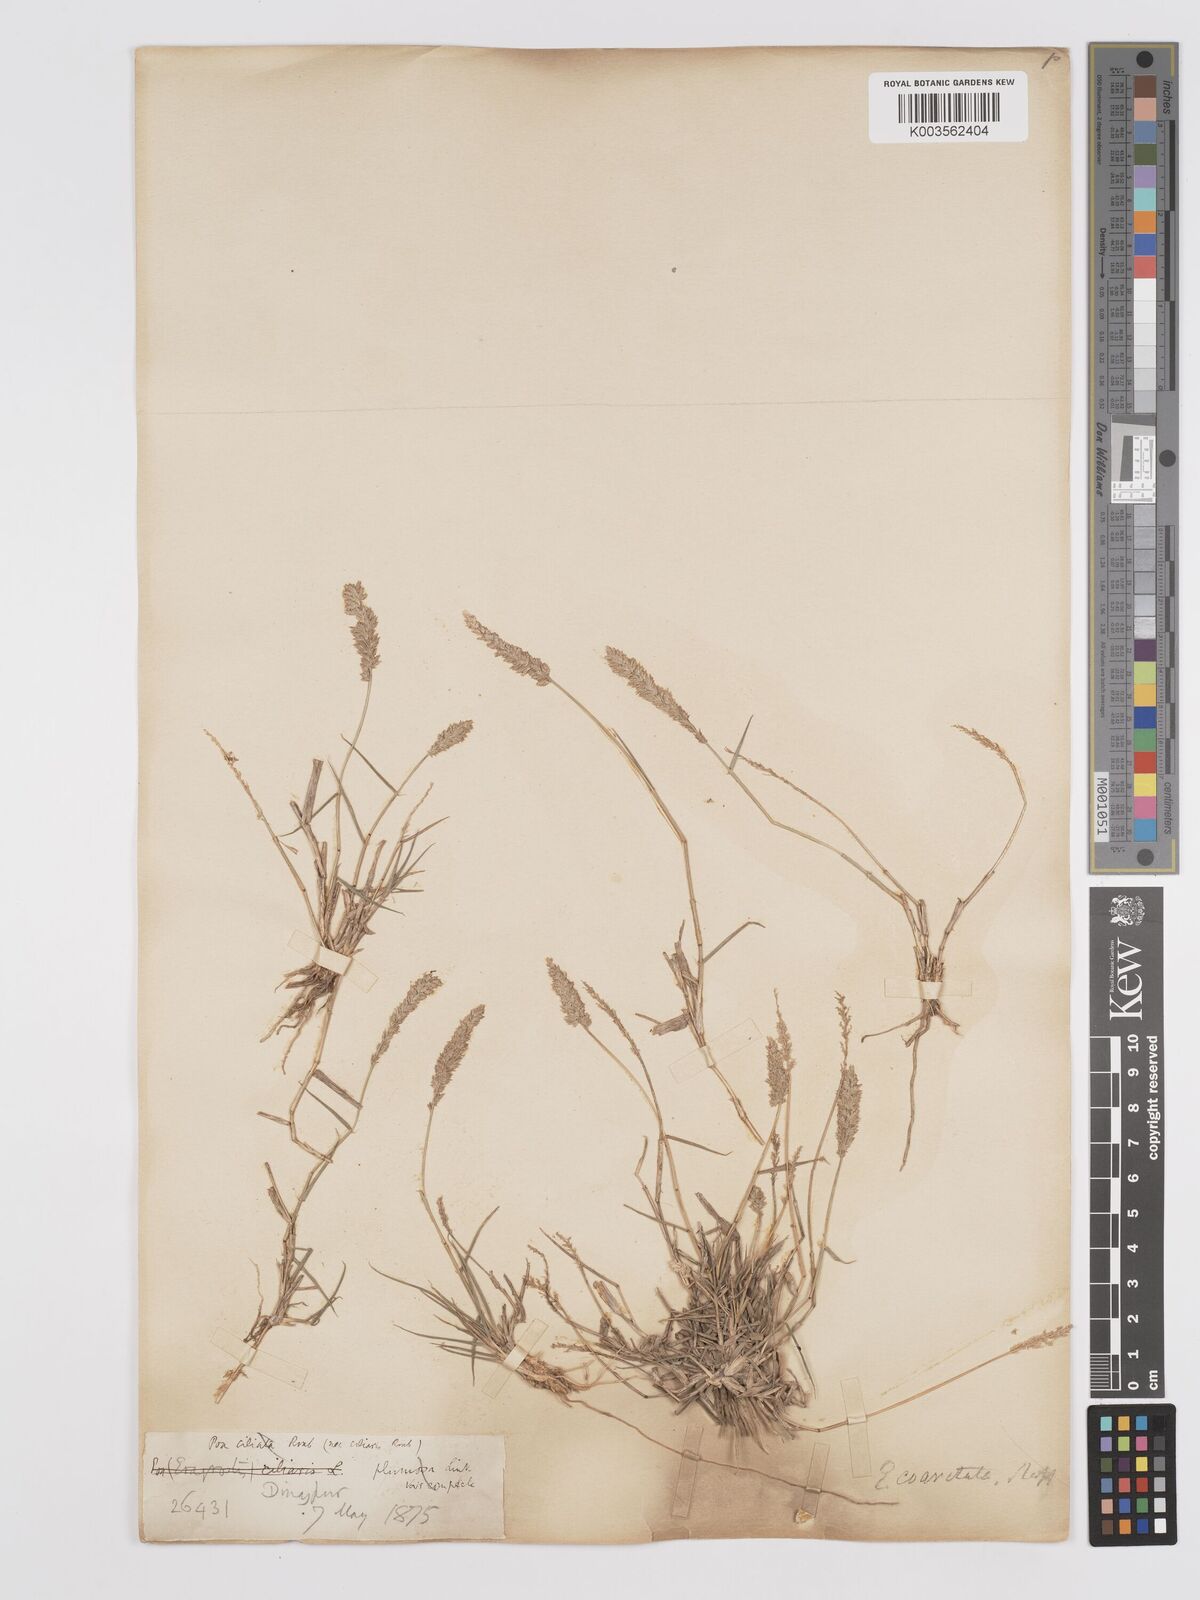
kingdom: Plantae
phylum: Tracheophyta
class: Liliopsida
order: Poales
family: Poaceae
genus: Eragrostis
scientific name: Eragrostis coarctata
